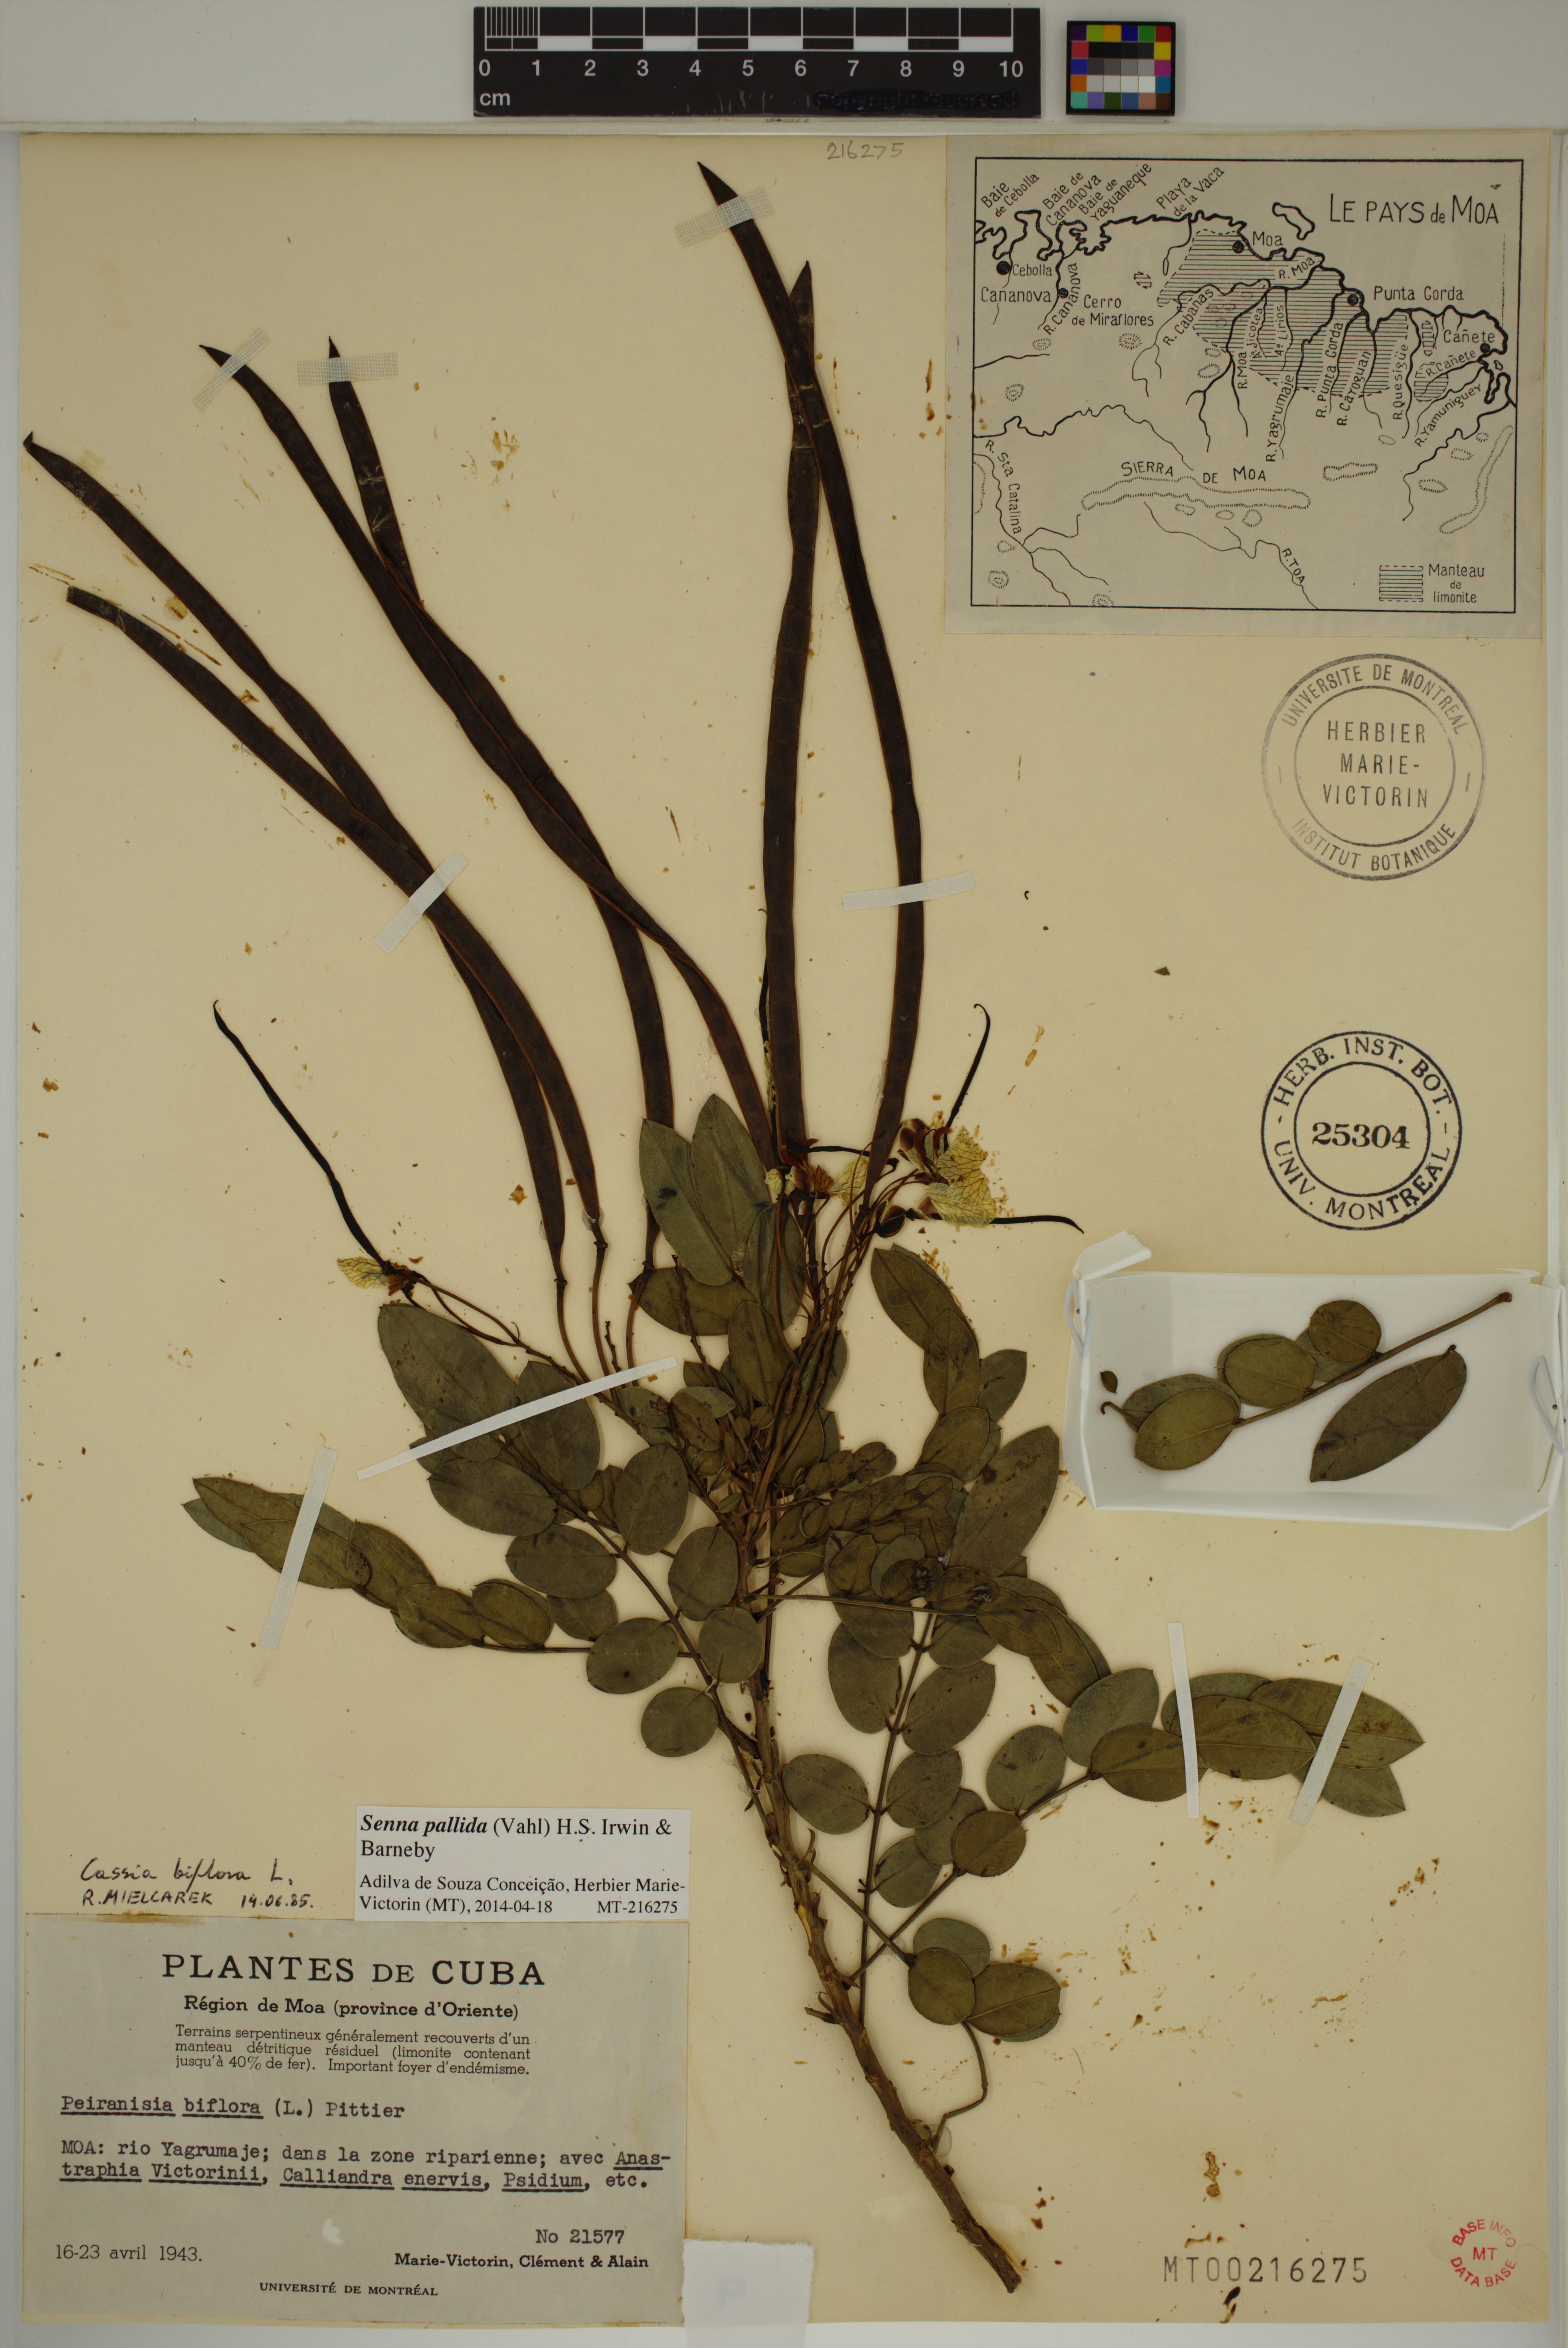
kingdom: Plantae
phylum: Tracheophyta
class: Magnoliopsida
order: Fabales
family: Fabaceae
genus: Senna
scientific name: Senna pallida
